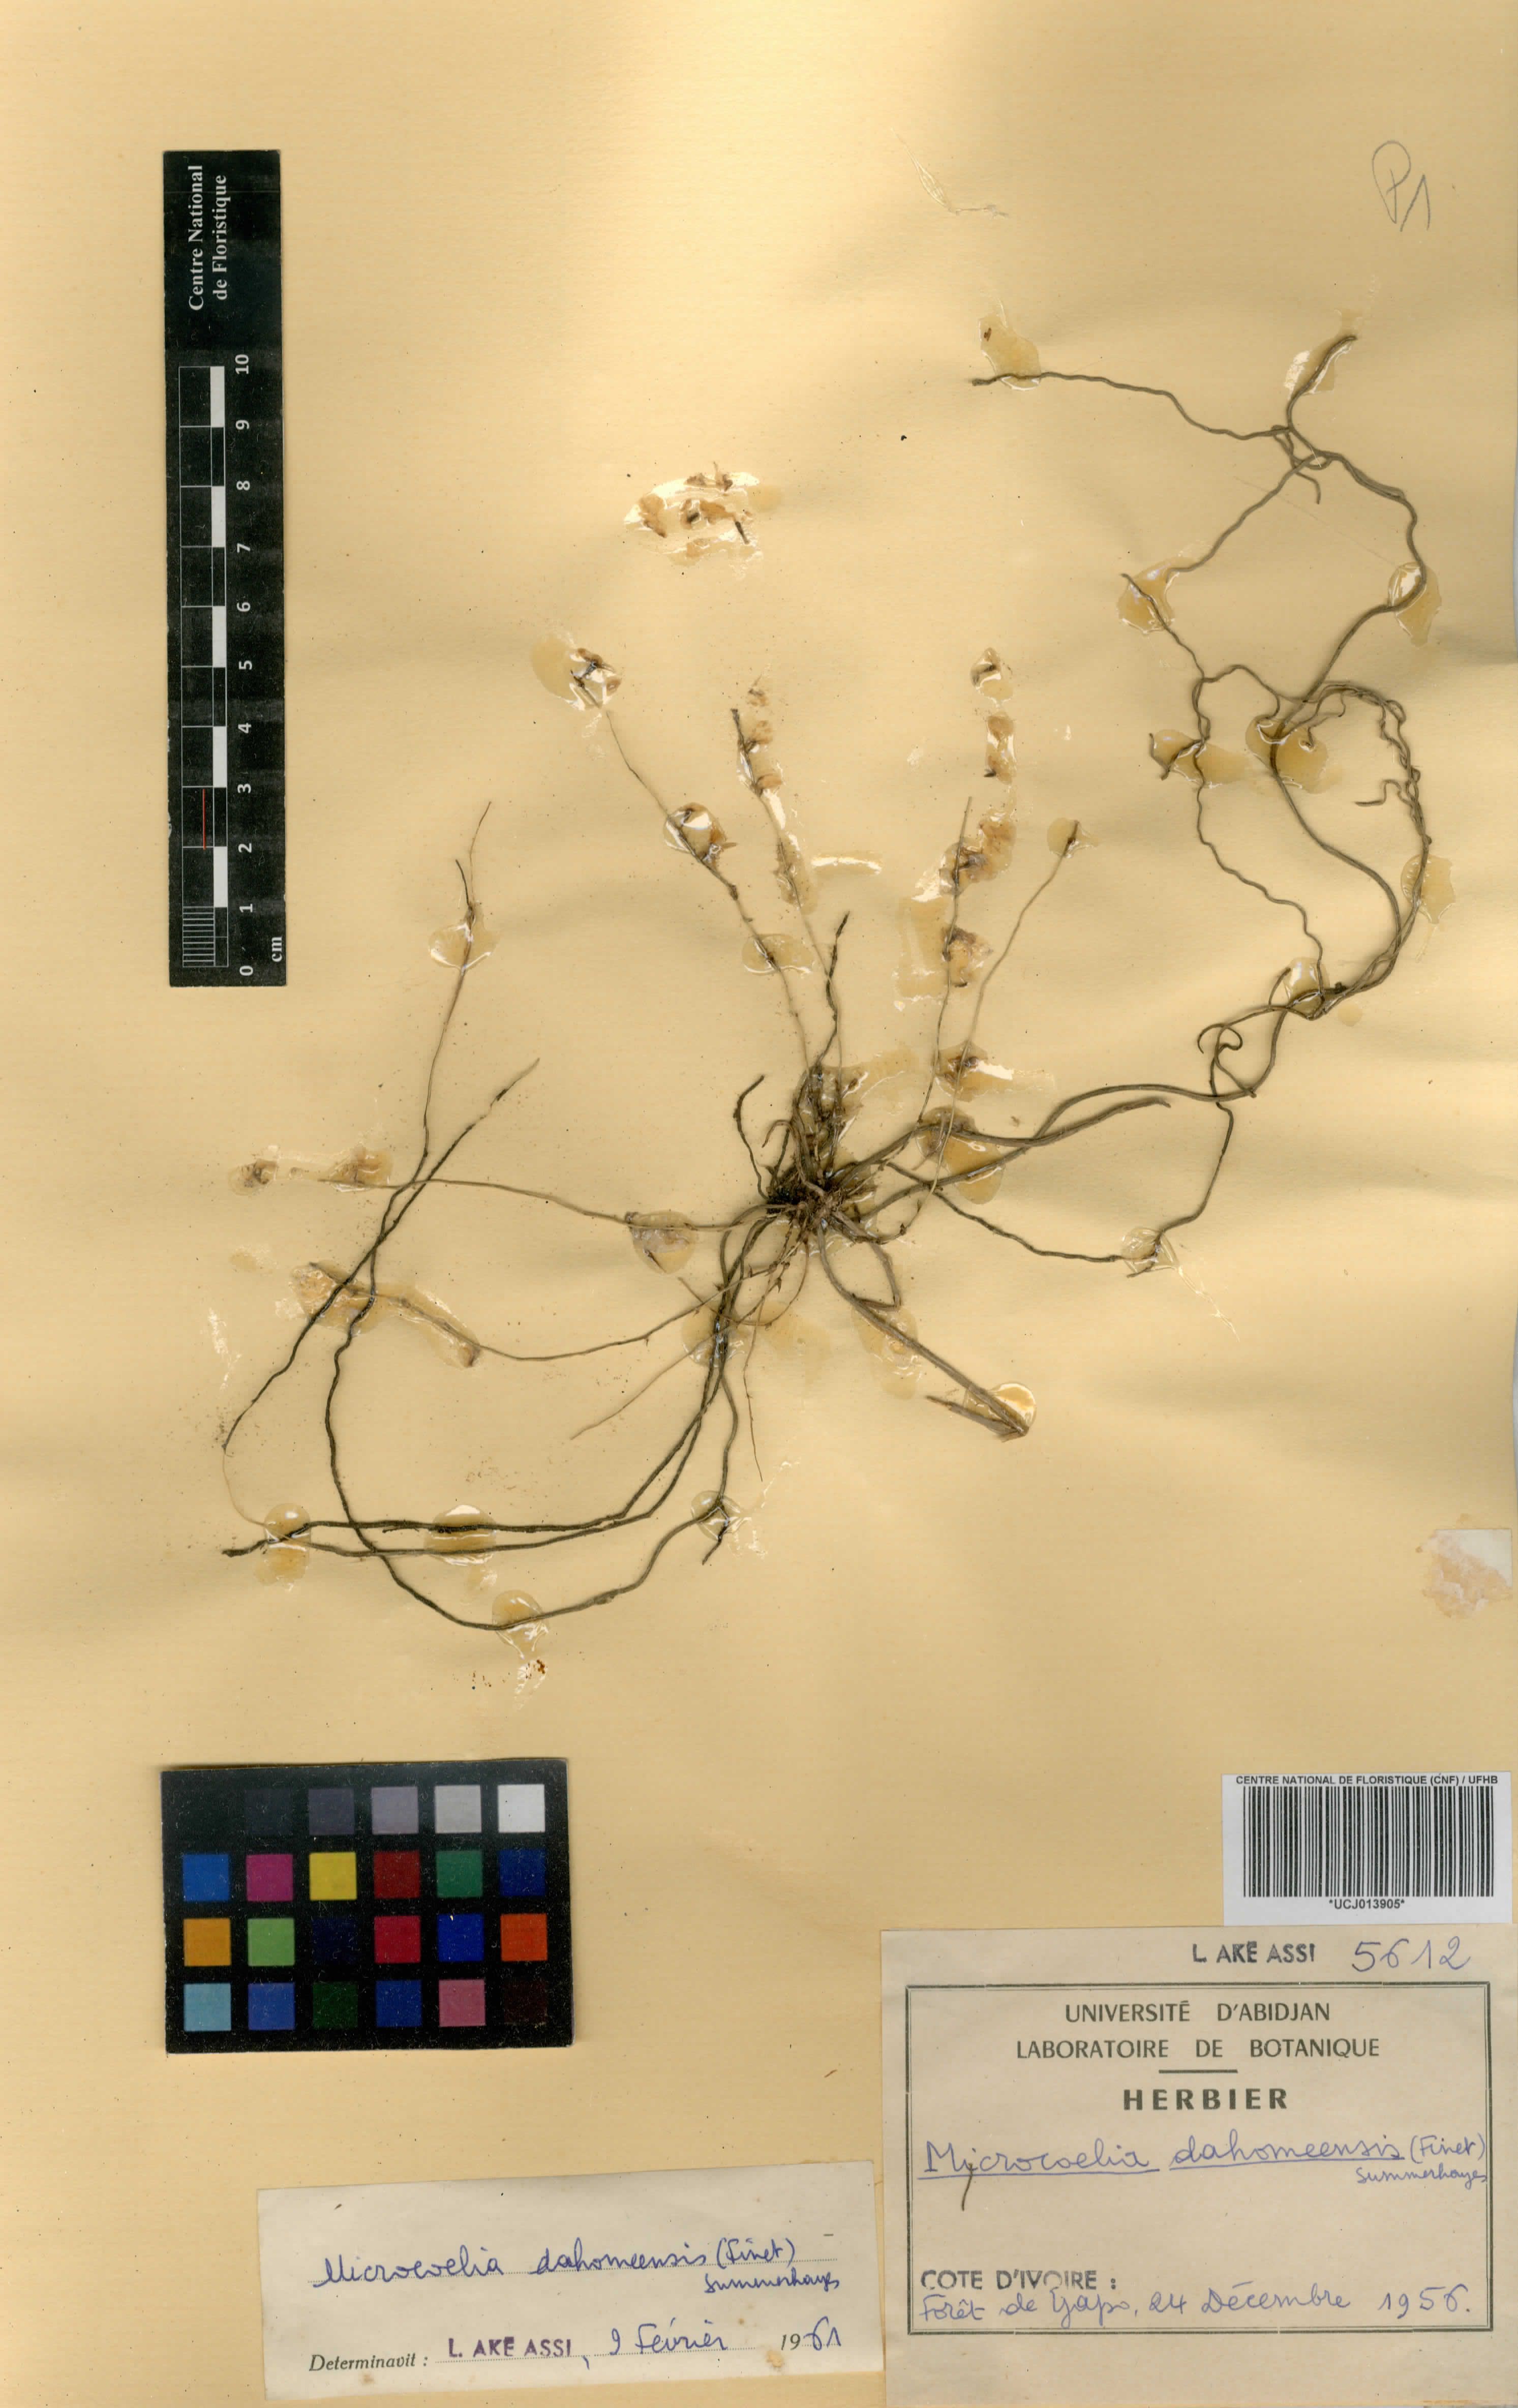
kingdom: Plantae
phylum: Tracheophyta
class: Liliopsida
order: Asparagales
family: Orchidaceae
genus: Microcoelia
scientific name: Microcoelia konduensis
